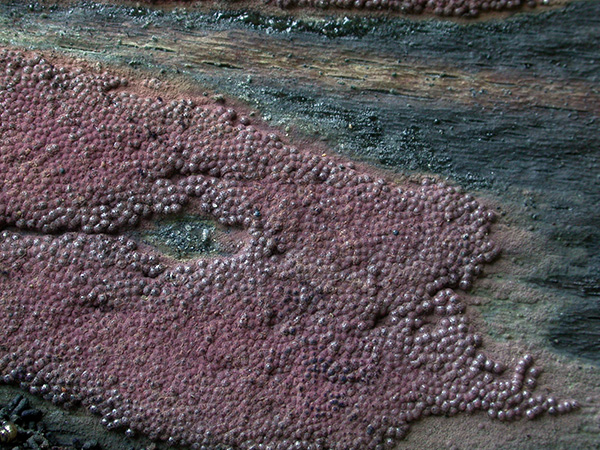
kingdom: Fungi
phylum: Ascomycota
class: Sordariomycetes
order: Xylariales
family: Hypoxylaceae
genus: Hypoxylon
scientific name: Hypoxylon macrocarpum
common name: skorpe-kulbær
